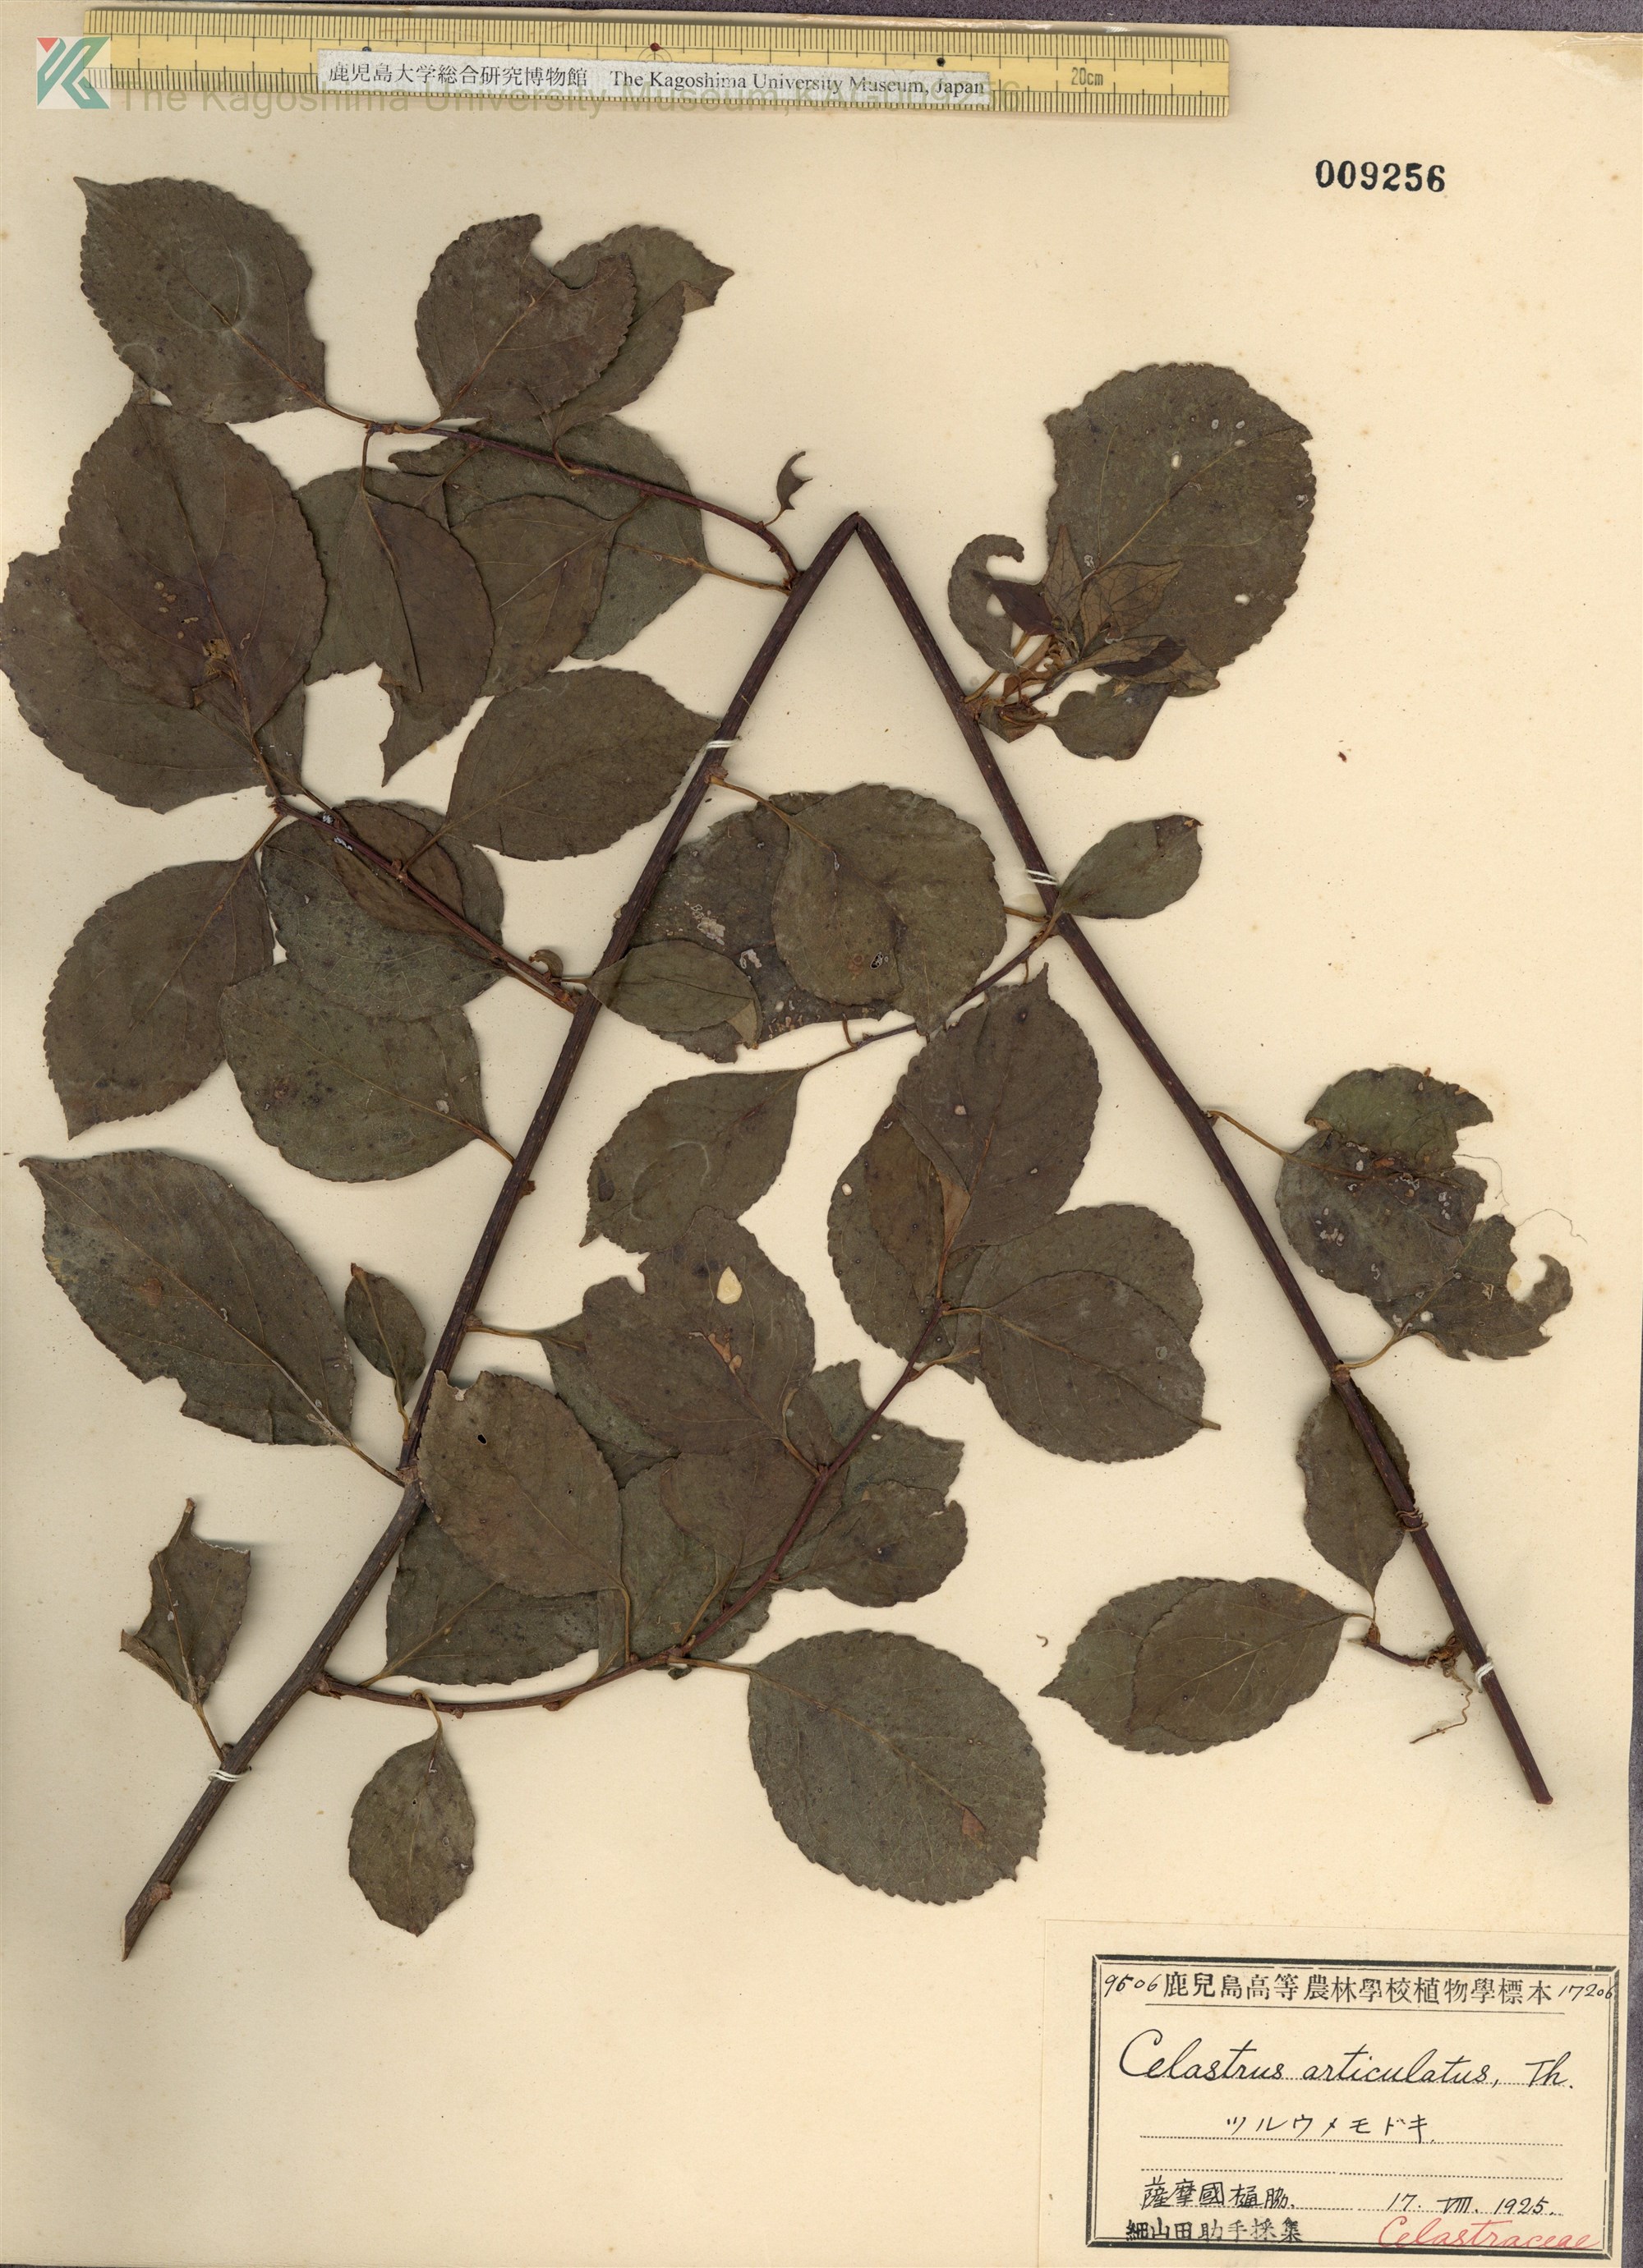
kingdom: Plantae
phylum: Tracheophyta
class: Magnoliopsida
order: Celastrales
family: Celastraceae
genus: Celastrus
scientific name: Celastrus orbiculatus
